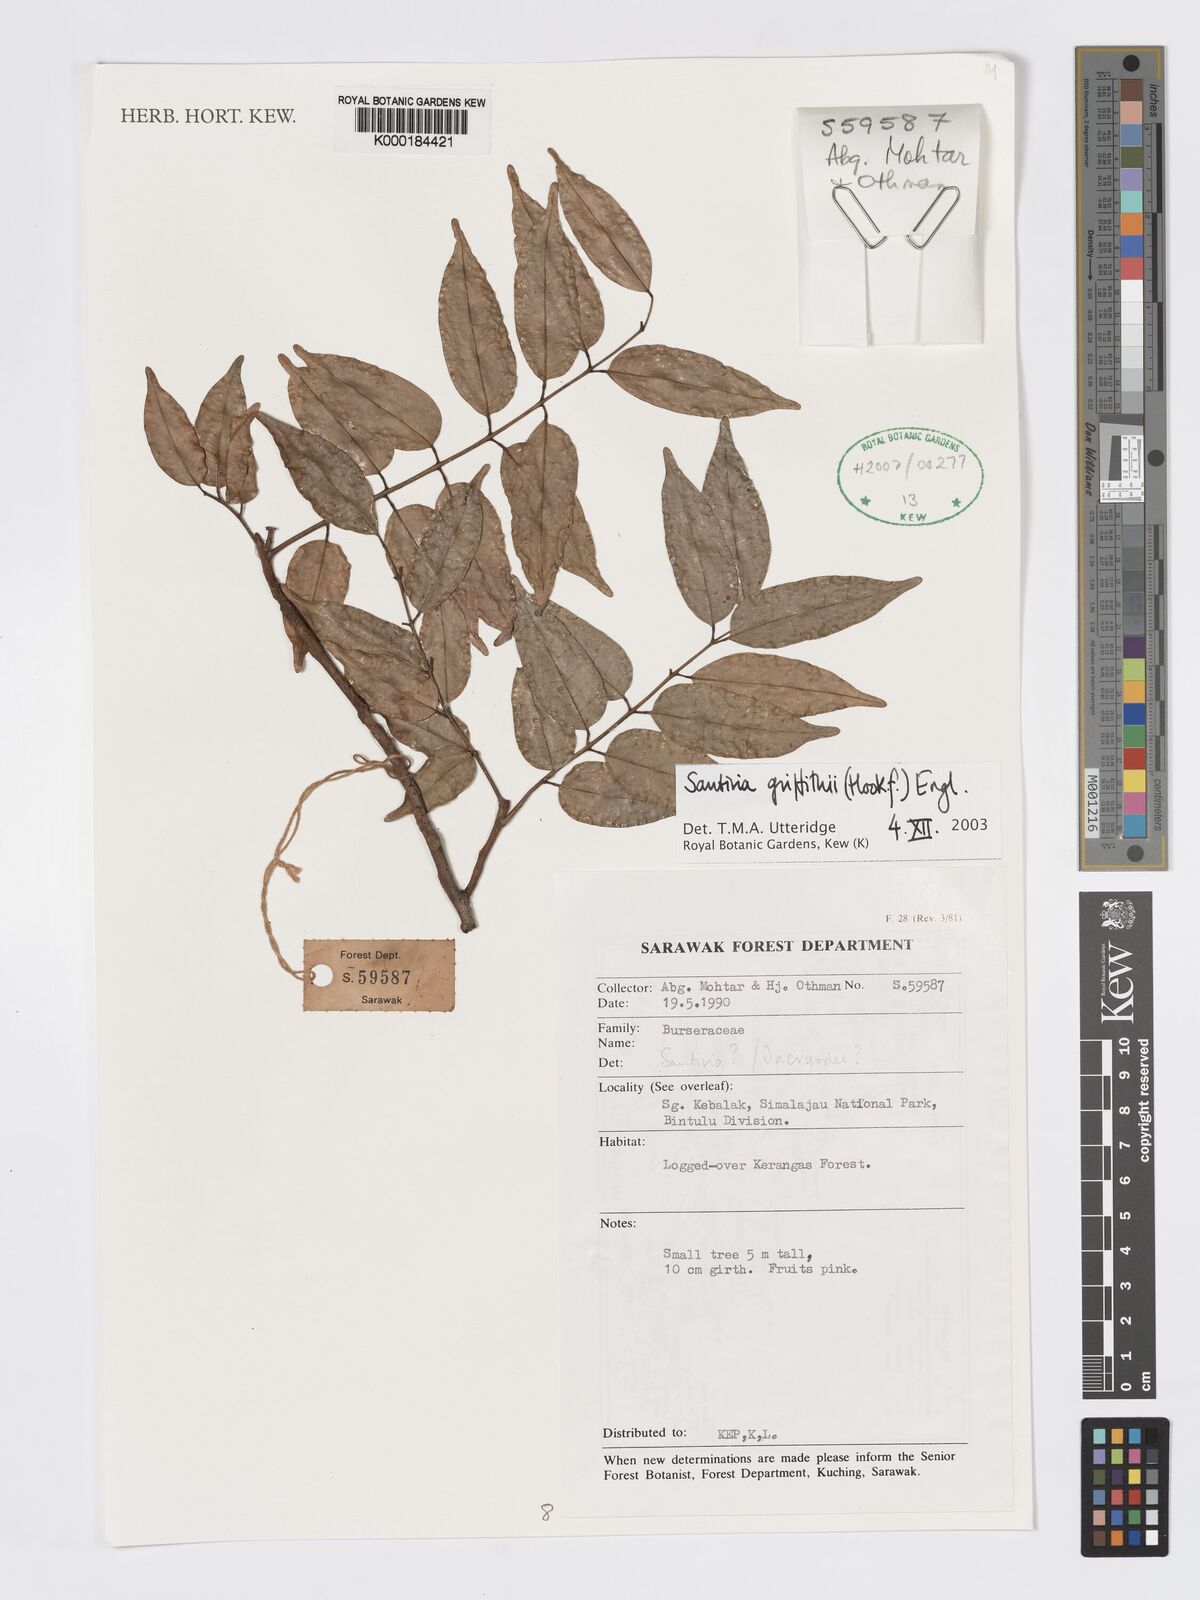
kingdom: Plantae
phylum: Tracheophyta
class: Magnoliopsida
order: Sapindales
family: Burseraceae
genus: Santiria
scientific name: Santiria griffithii
